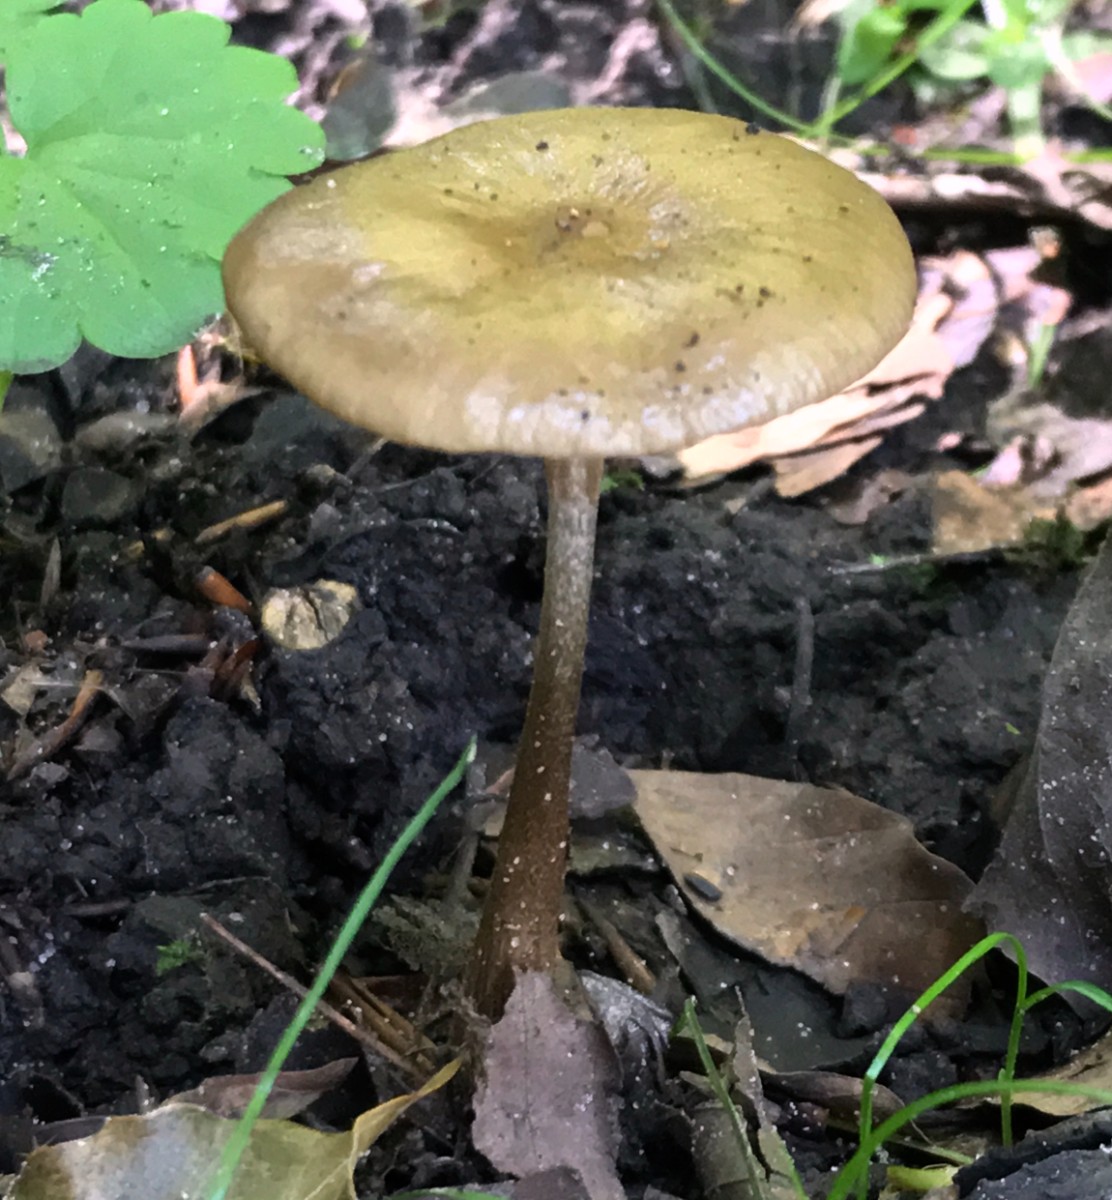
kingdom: Fungi
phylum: Basidiomycota
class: Agaricomycetes
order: Agaricales
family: Physalacriaceae
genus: Hymenopellis
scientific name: Hymenopellis radicata
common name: almindelig pælerodshat
